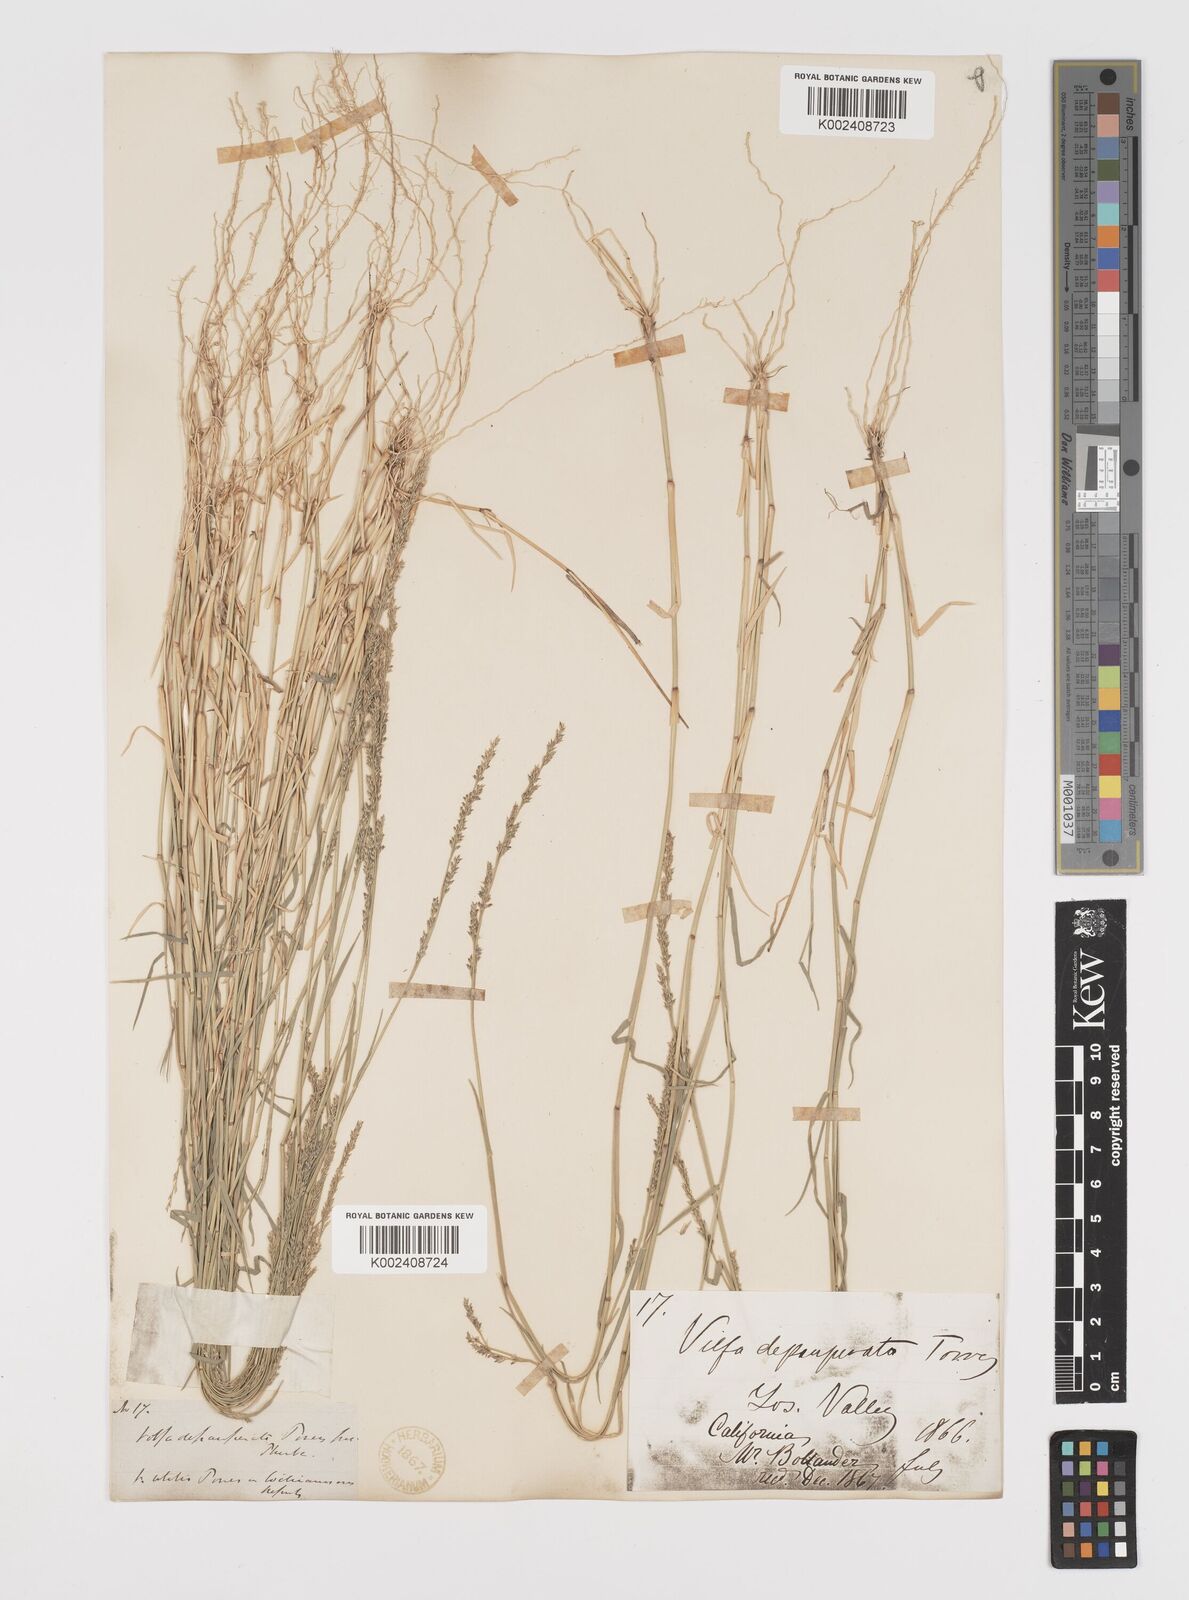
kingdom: Plantae
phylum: Tracheophyta
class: Liliopsida
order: Poales
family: Poaceae
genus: Muhlenbergia
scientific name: Muhlenbergia richardsonis
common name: Mat muhly
